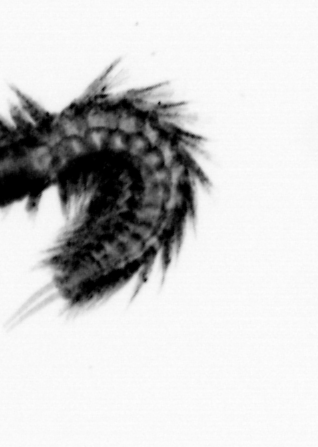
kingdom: Animalia
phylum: Annelida
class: Polychaeta
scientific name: Polychaeta
